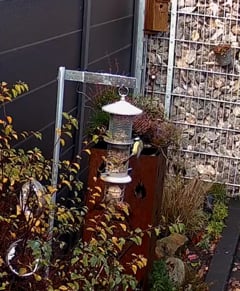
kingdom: Animalia
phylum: Chordata
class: Aves
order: Passeriformes
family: Sittidae
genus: Sitta
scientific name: Sitta europaea
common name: Eurasian nuthatch
